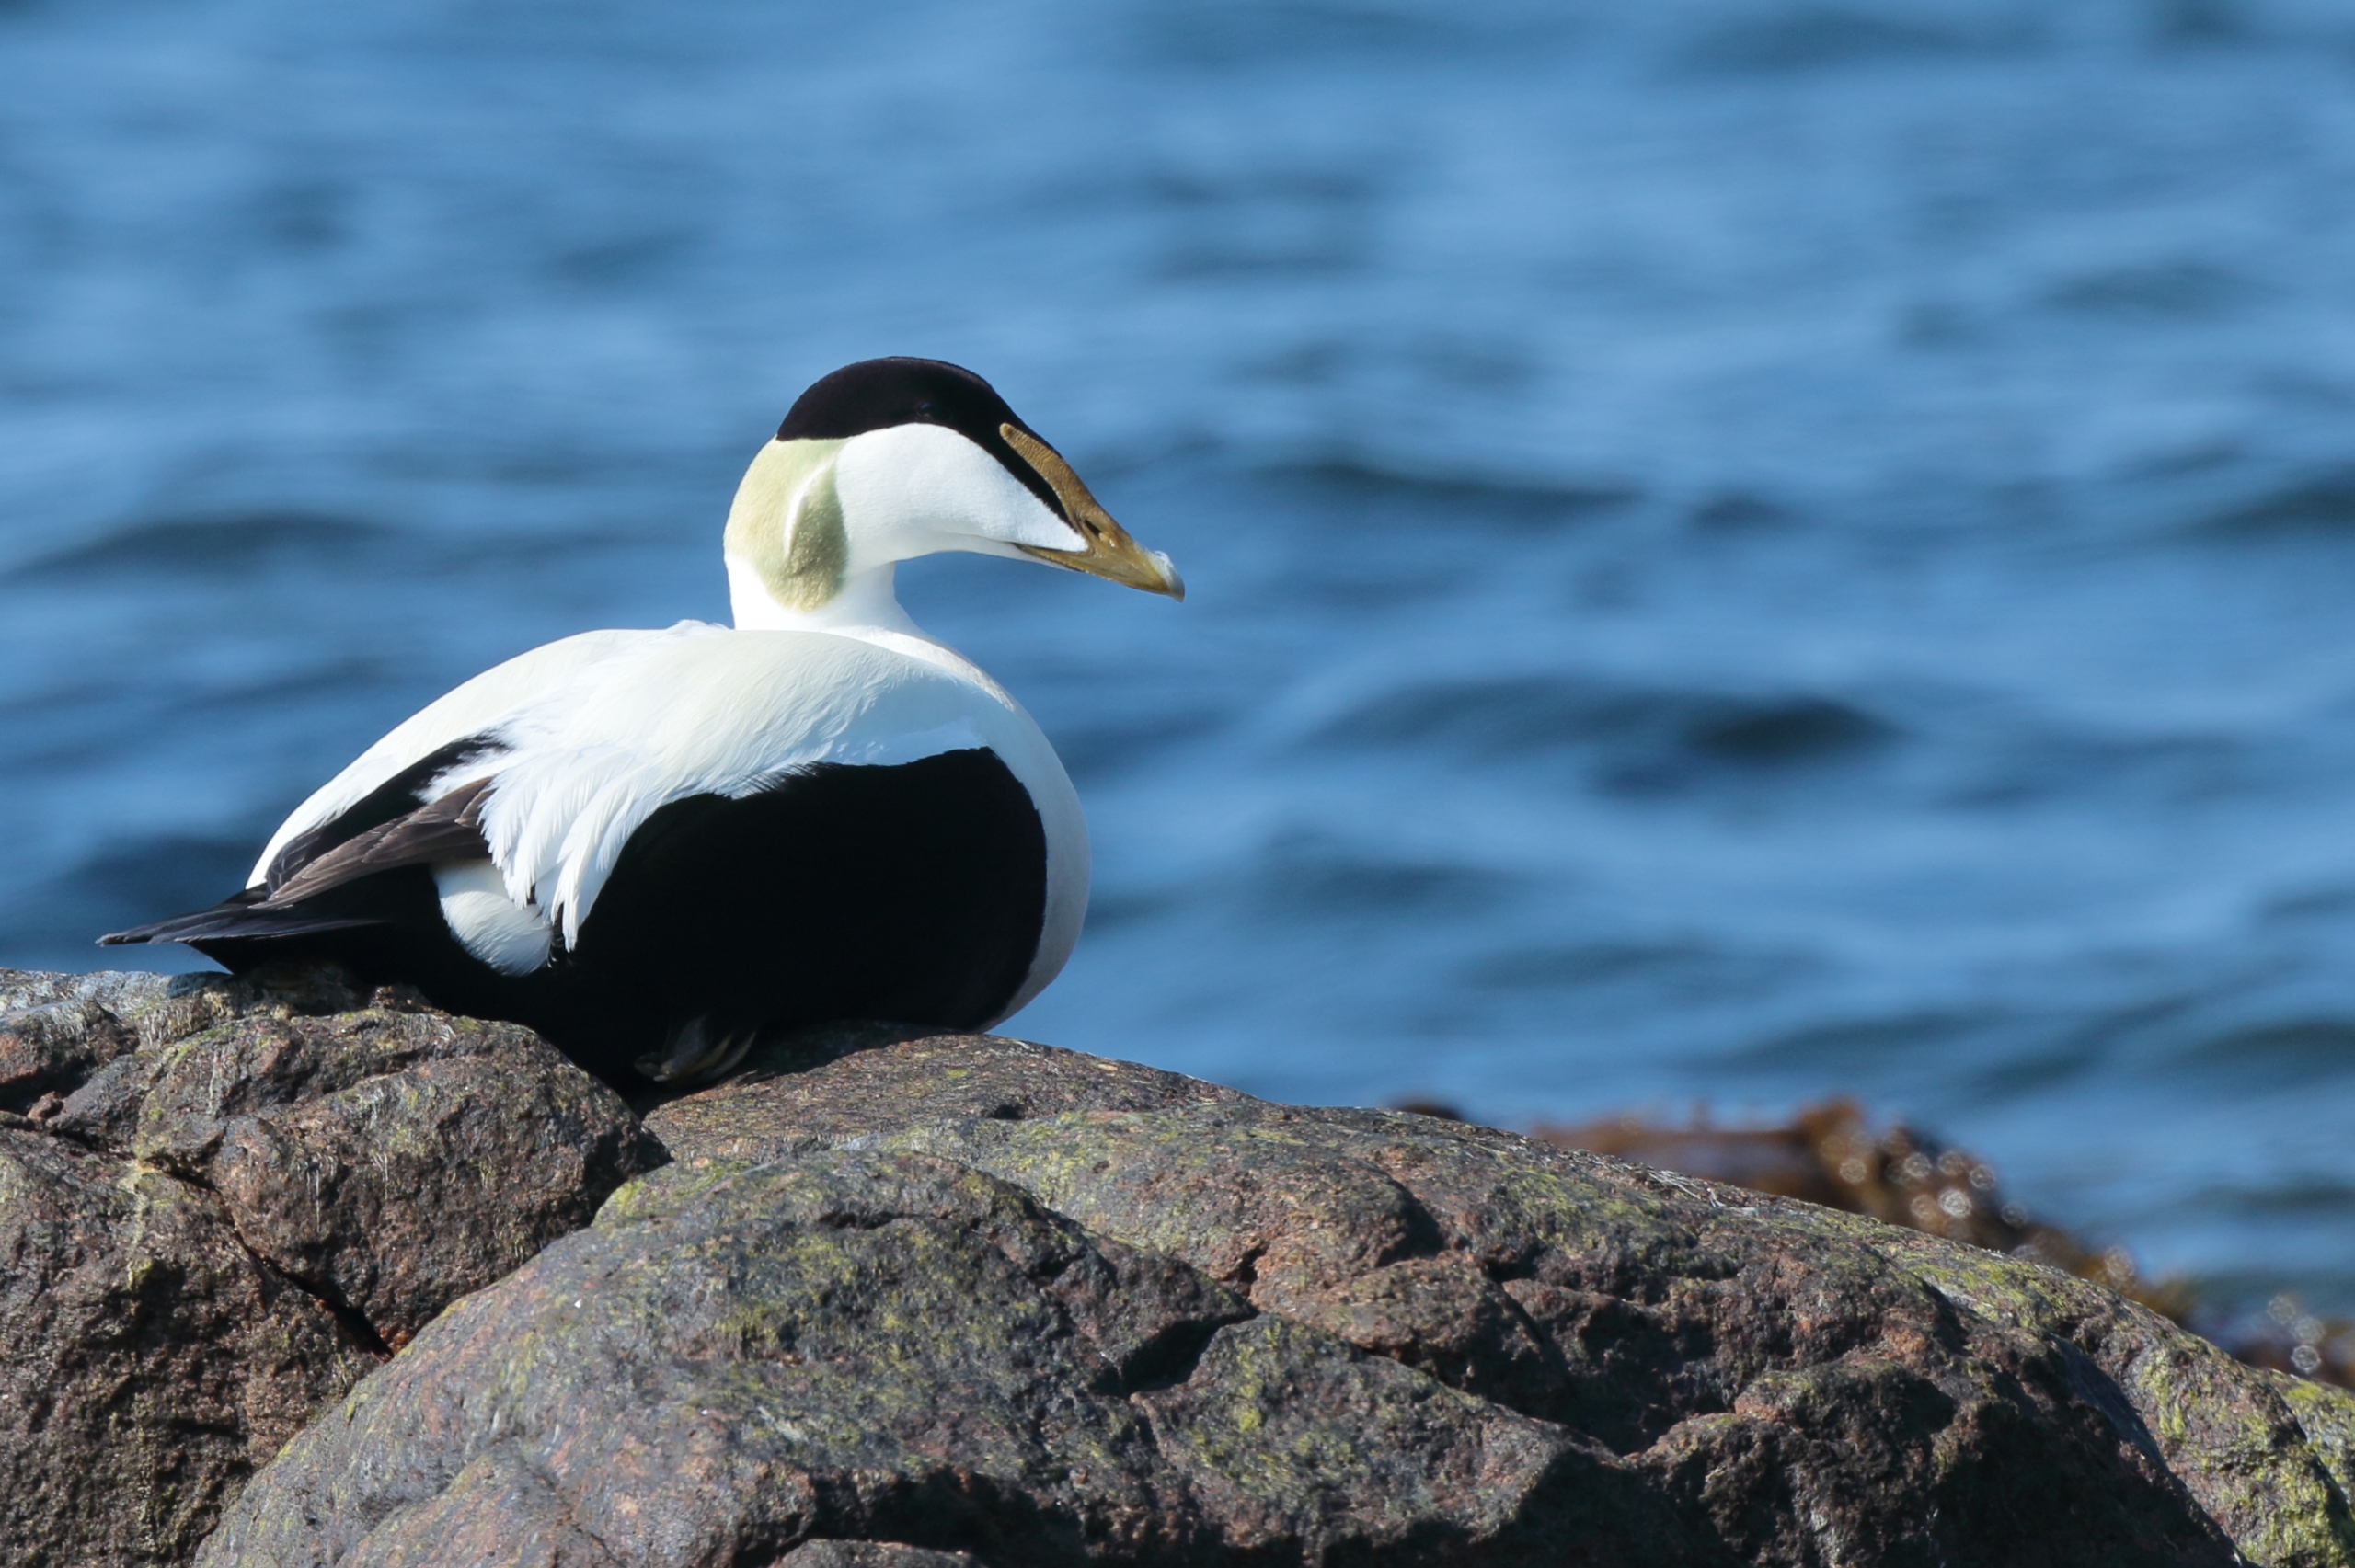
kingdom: Animalia
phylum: Chordata
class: Aves
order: Anseriformes
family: Anatidae
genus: Somateria
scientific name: Somateria mollissima
